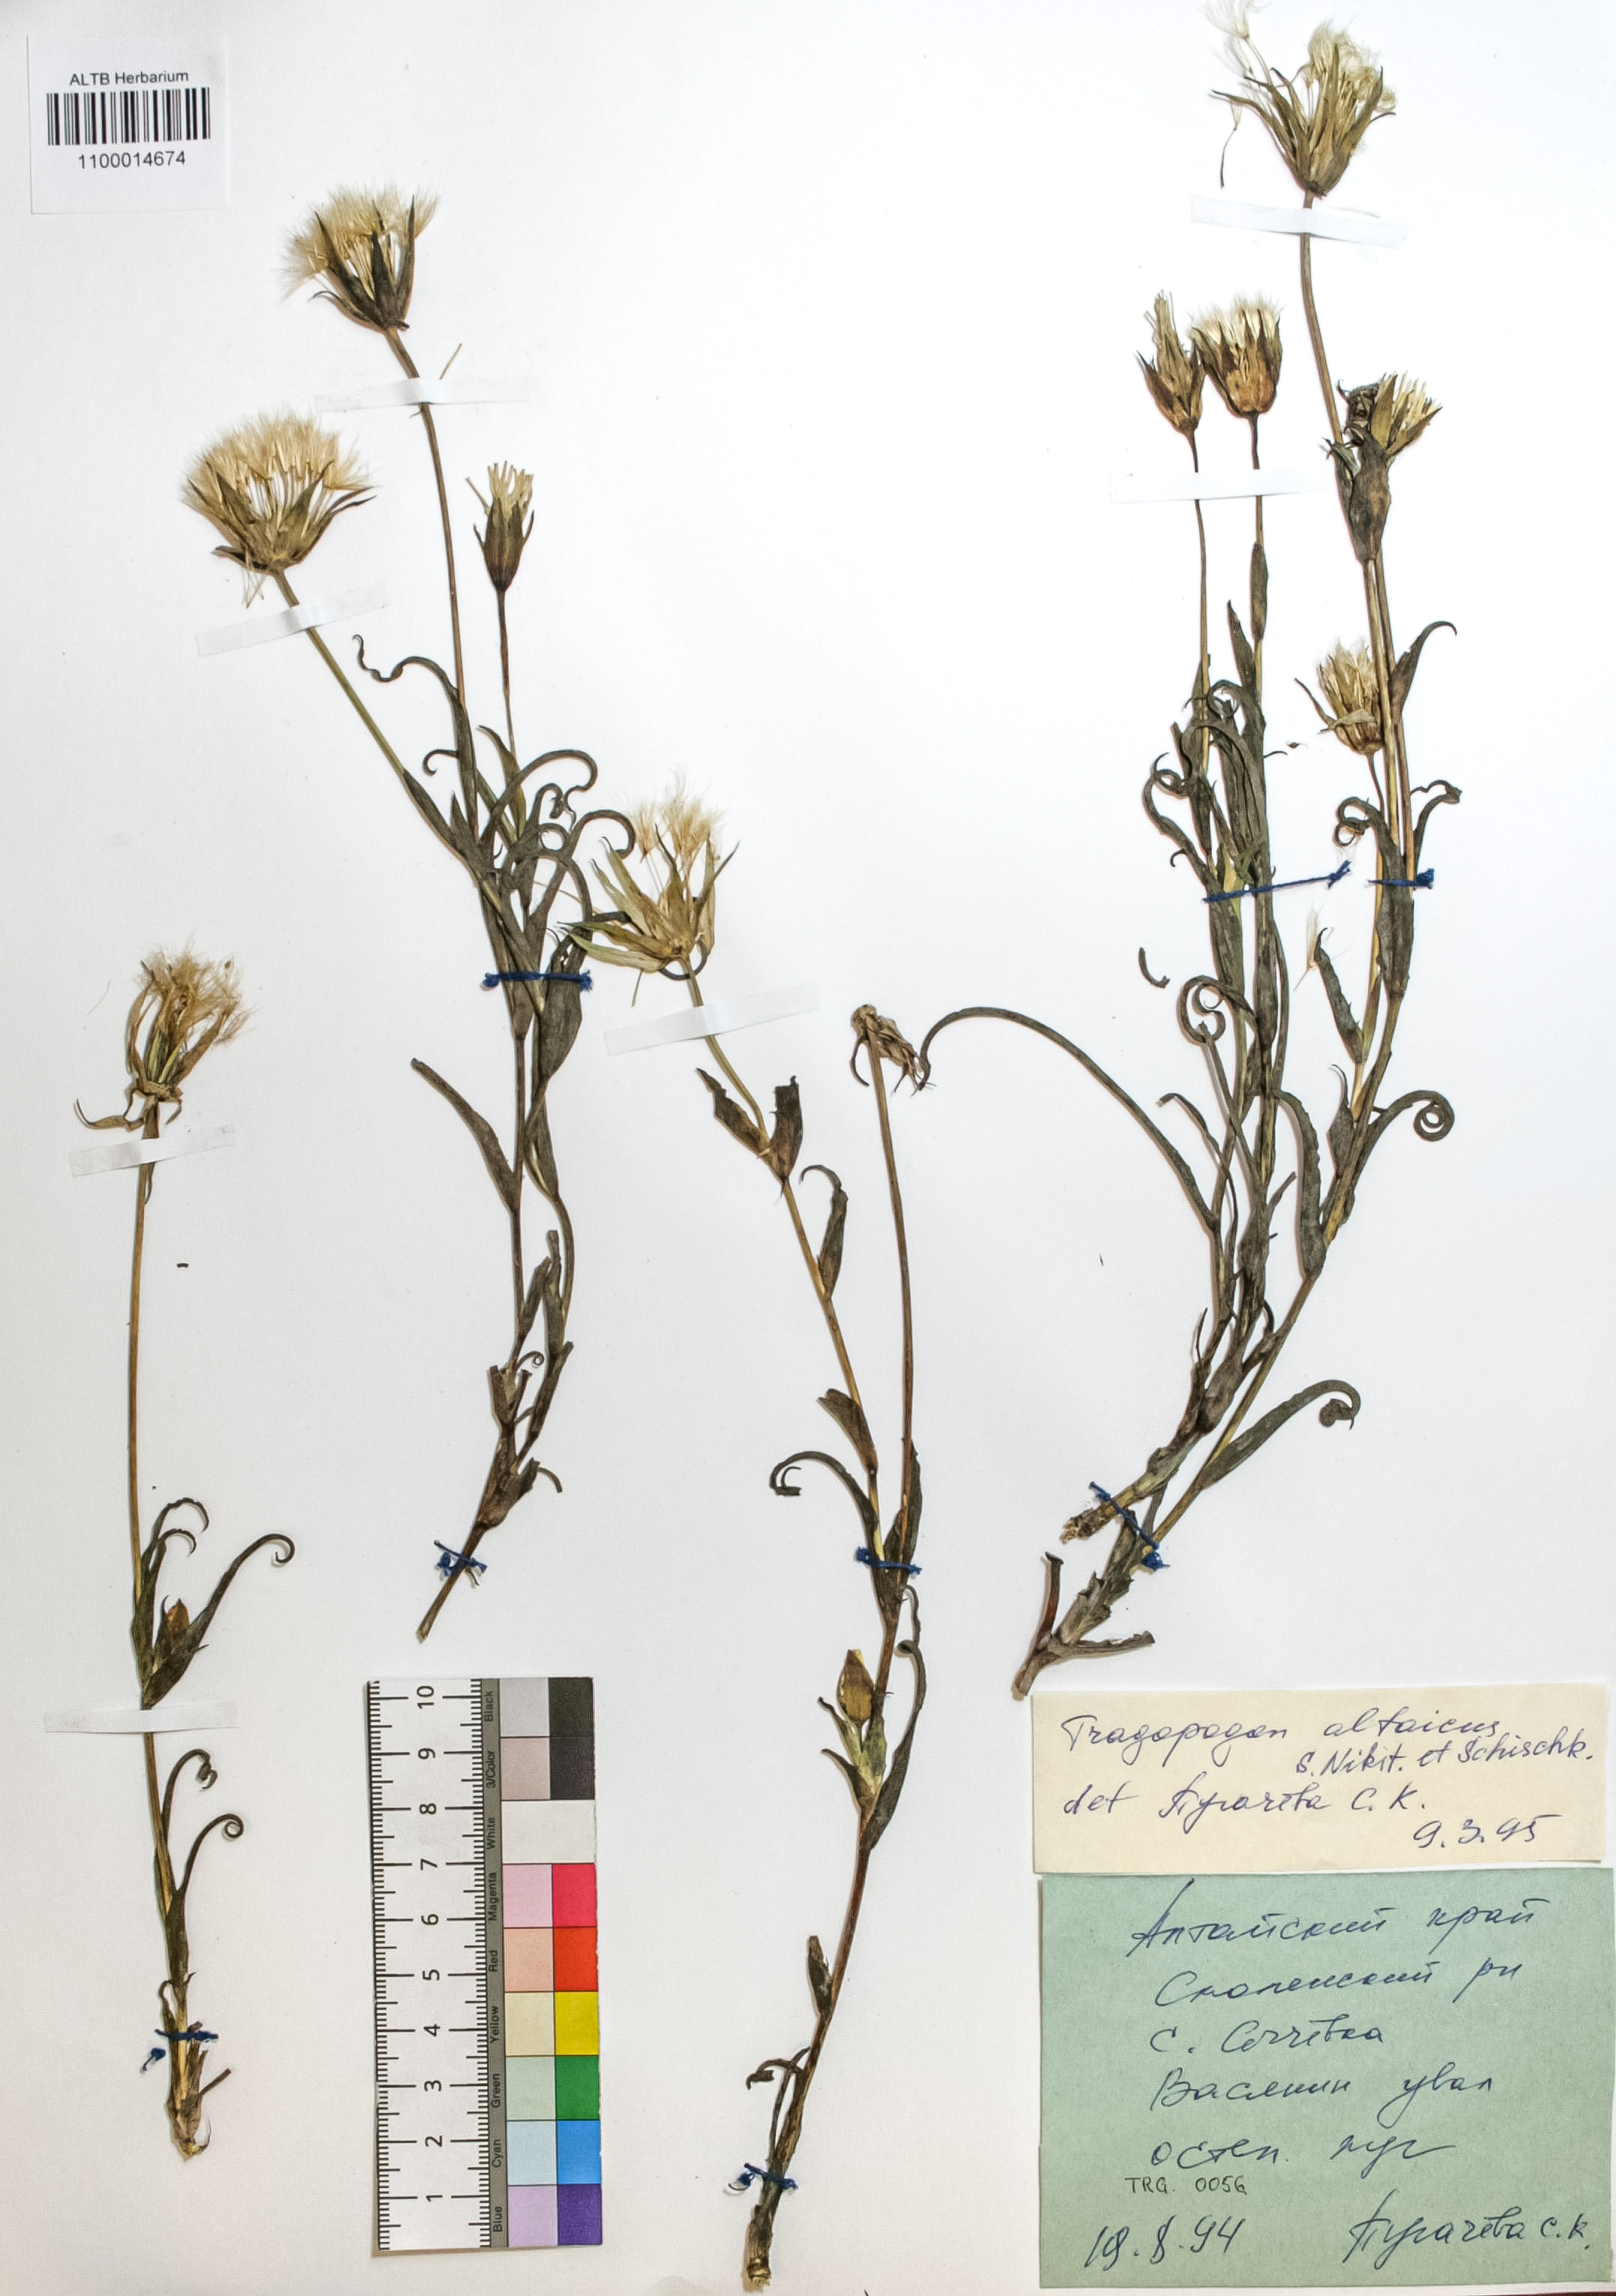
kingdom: Plantae
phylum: Tracheophyta
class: Magnoliopsida
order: Asterales
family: Asteraceae
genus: Tragopogon
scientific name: Tragopogon altaicus
